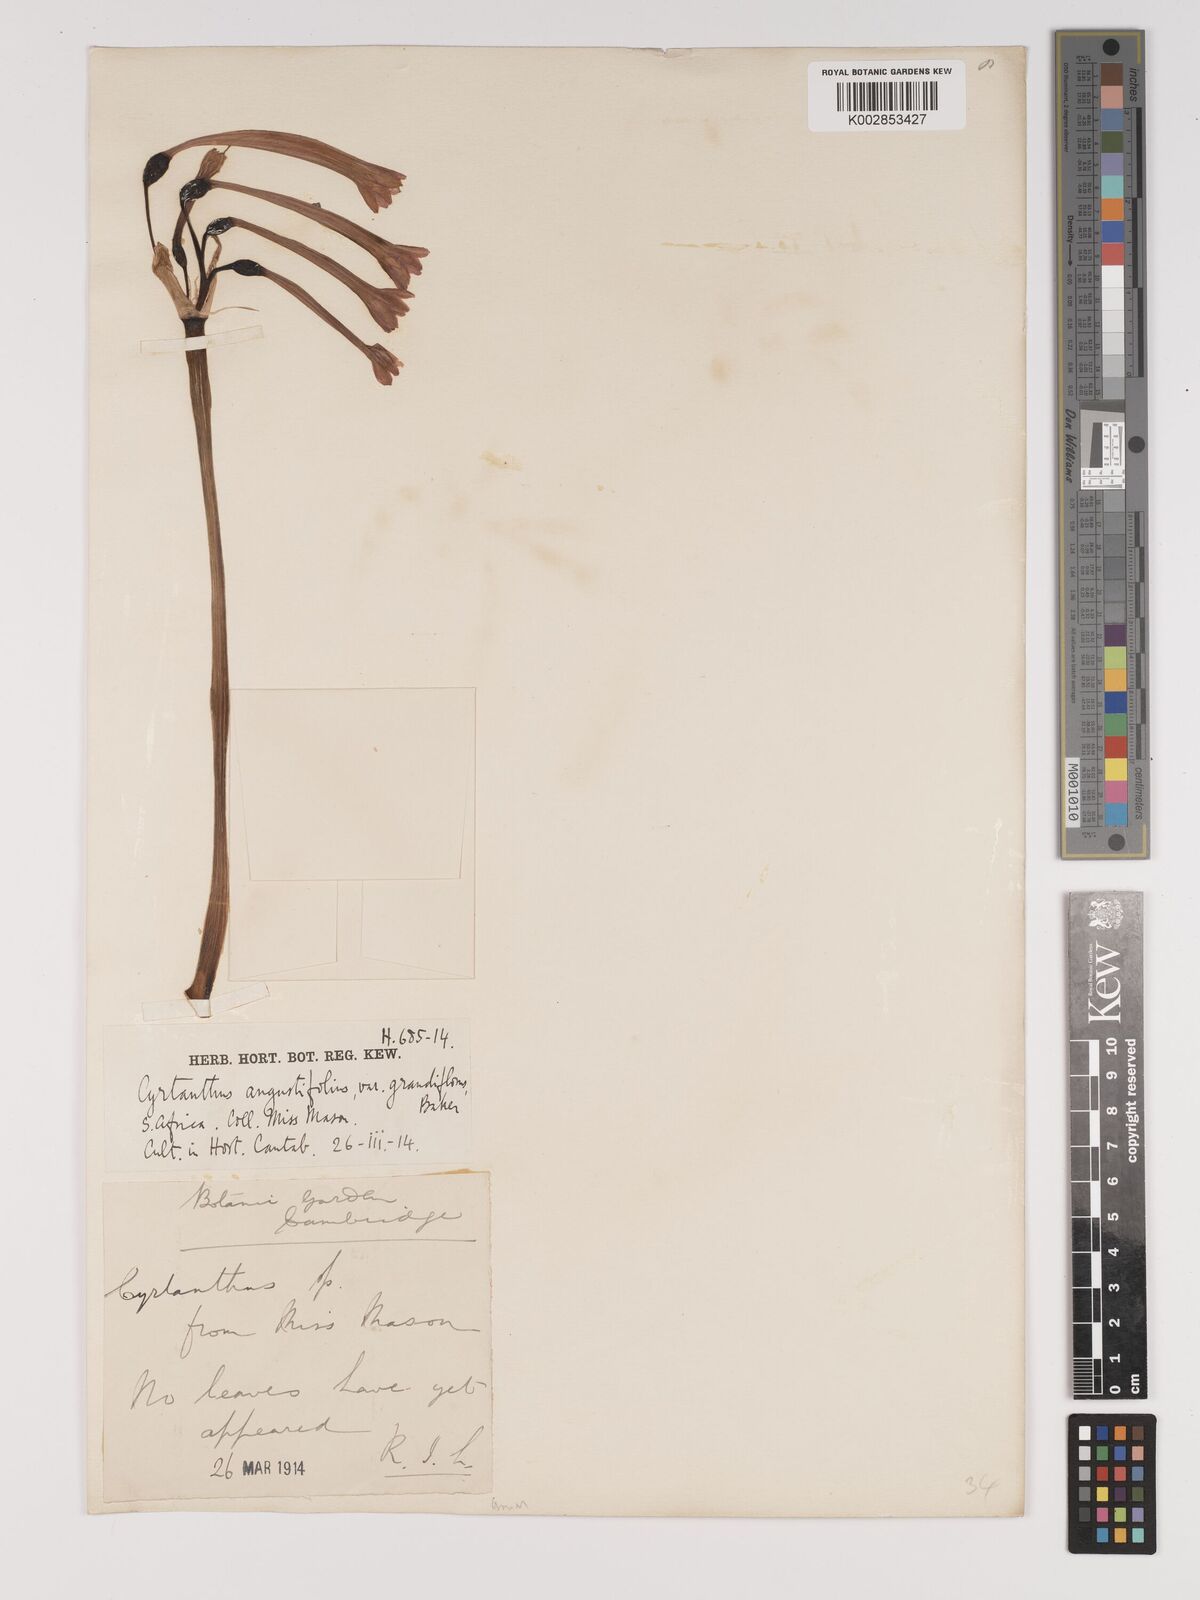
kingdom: Plantae
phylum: Tracheophyta
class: Liliopsida
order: Asparagales
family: Amaryllidaceae
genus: Cyrtanthus
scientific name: Cyrtanthus contractus
